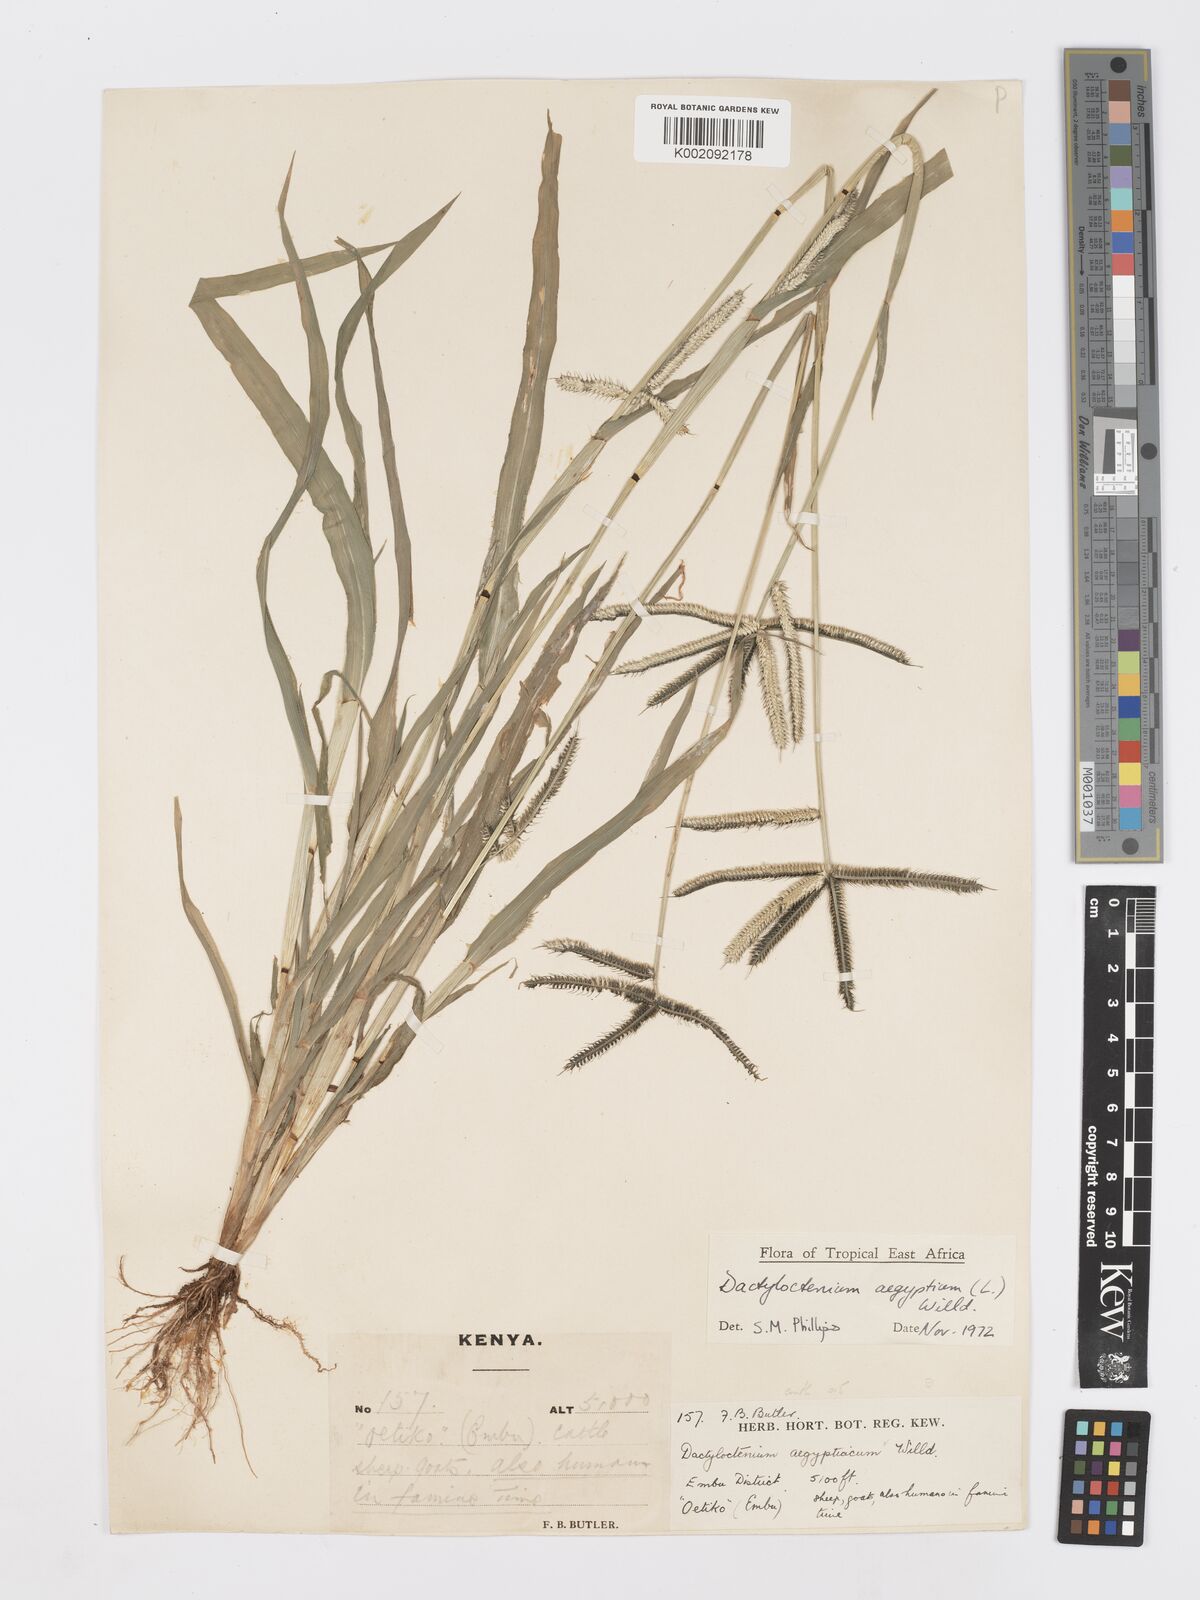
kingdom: Plantae
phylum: Tracheophyta
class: Liliopsida
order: Poales
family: Poaceae
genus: Dactyloctenium
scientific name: Dactyloctenium aegyptium
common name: Egyptian grass
